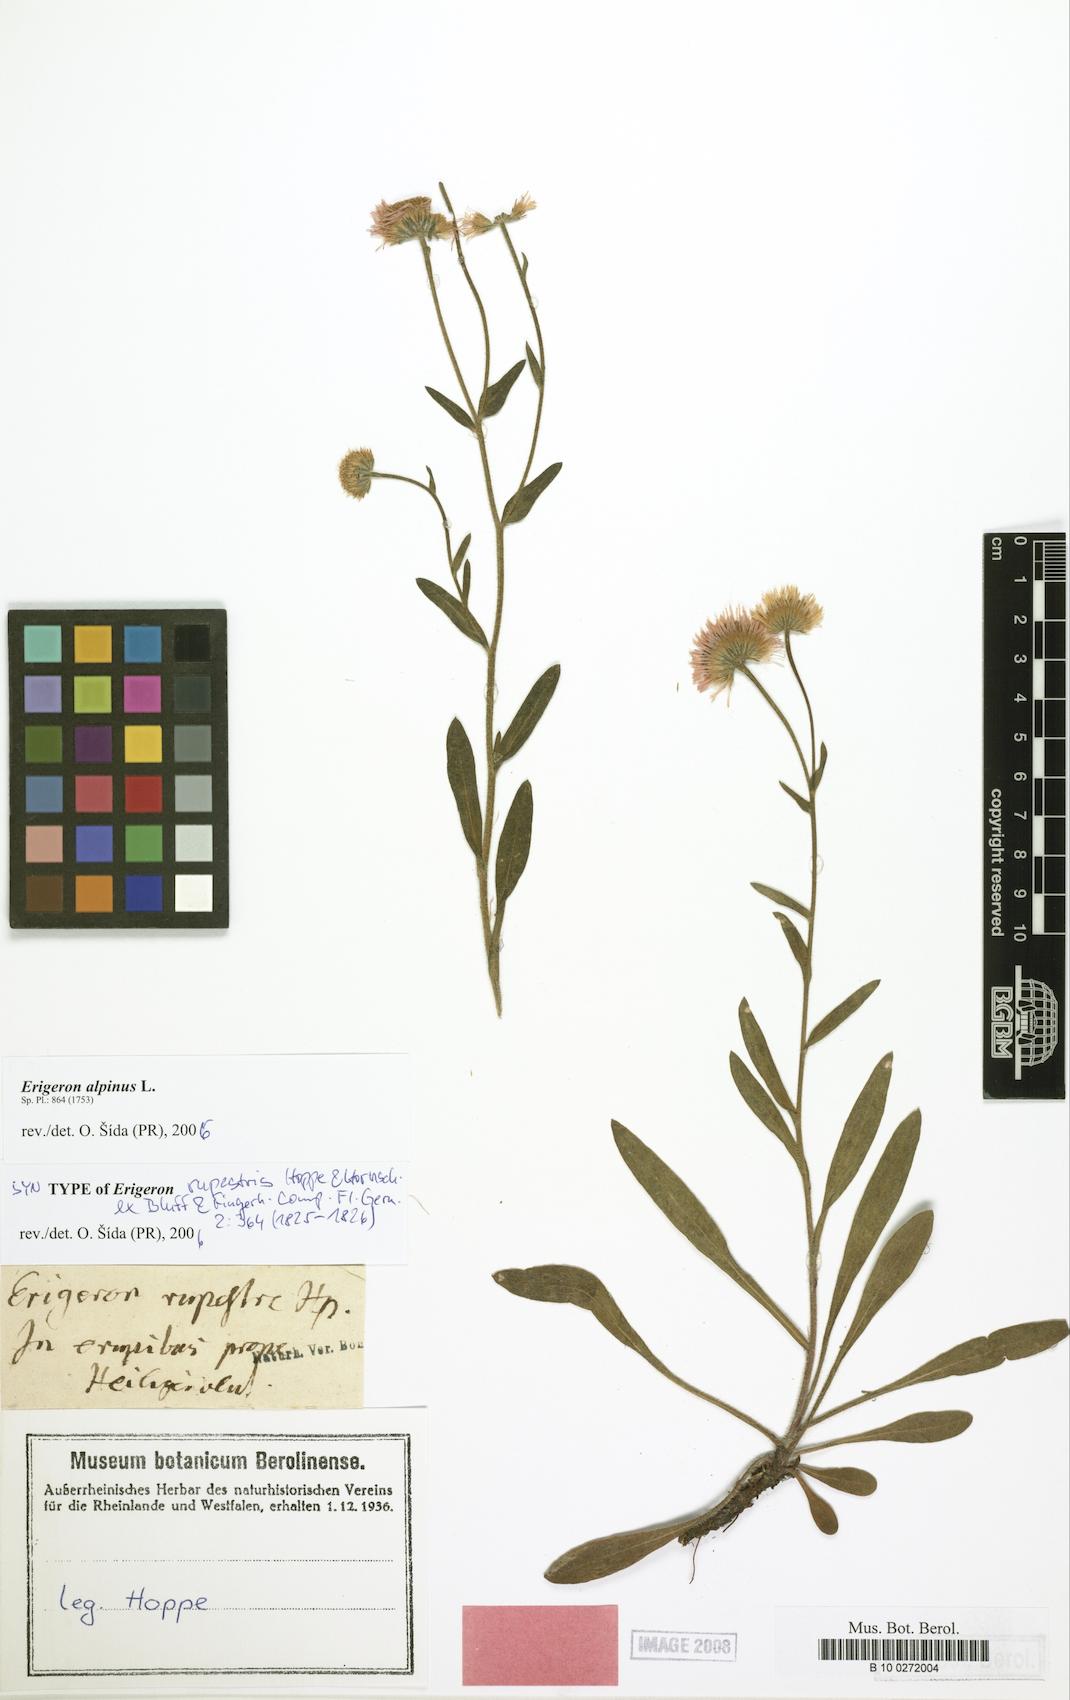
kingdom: Plantae
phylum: Tracheophyta
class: Magnoliopsida
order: Asterales
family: Asteraceae
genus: Erigeron
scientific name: Erigeron alpinus
